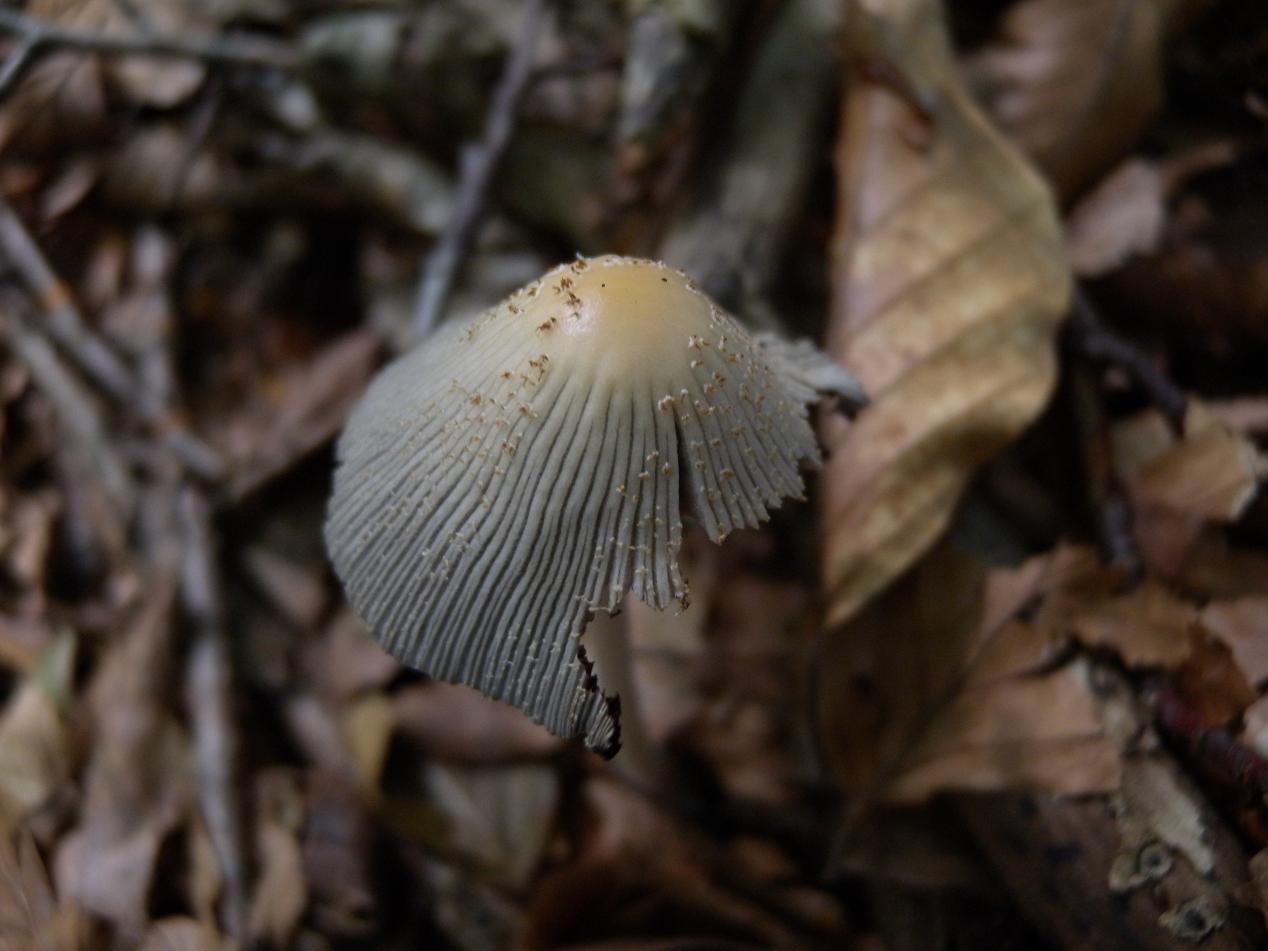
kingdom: Fungi
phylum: Basidiomycota
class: Agaricomycetes
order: Agaricales
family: Psathyrellaceae
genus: Coprinellus
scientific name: Coprinellus domesticus
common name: hus-blækhat
